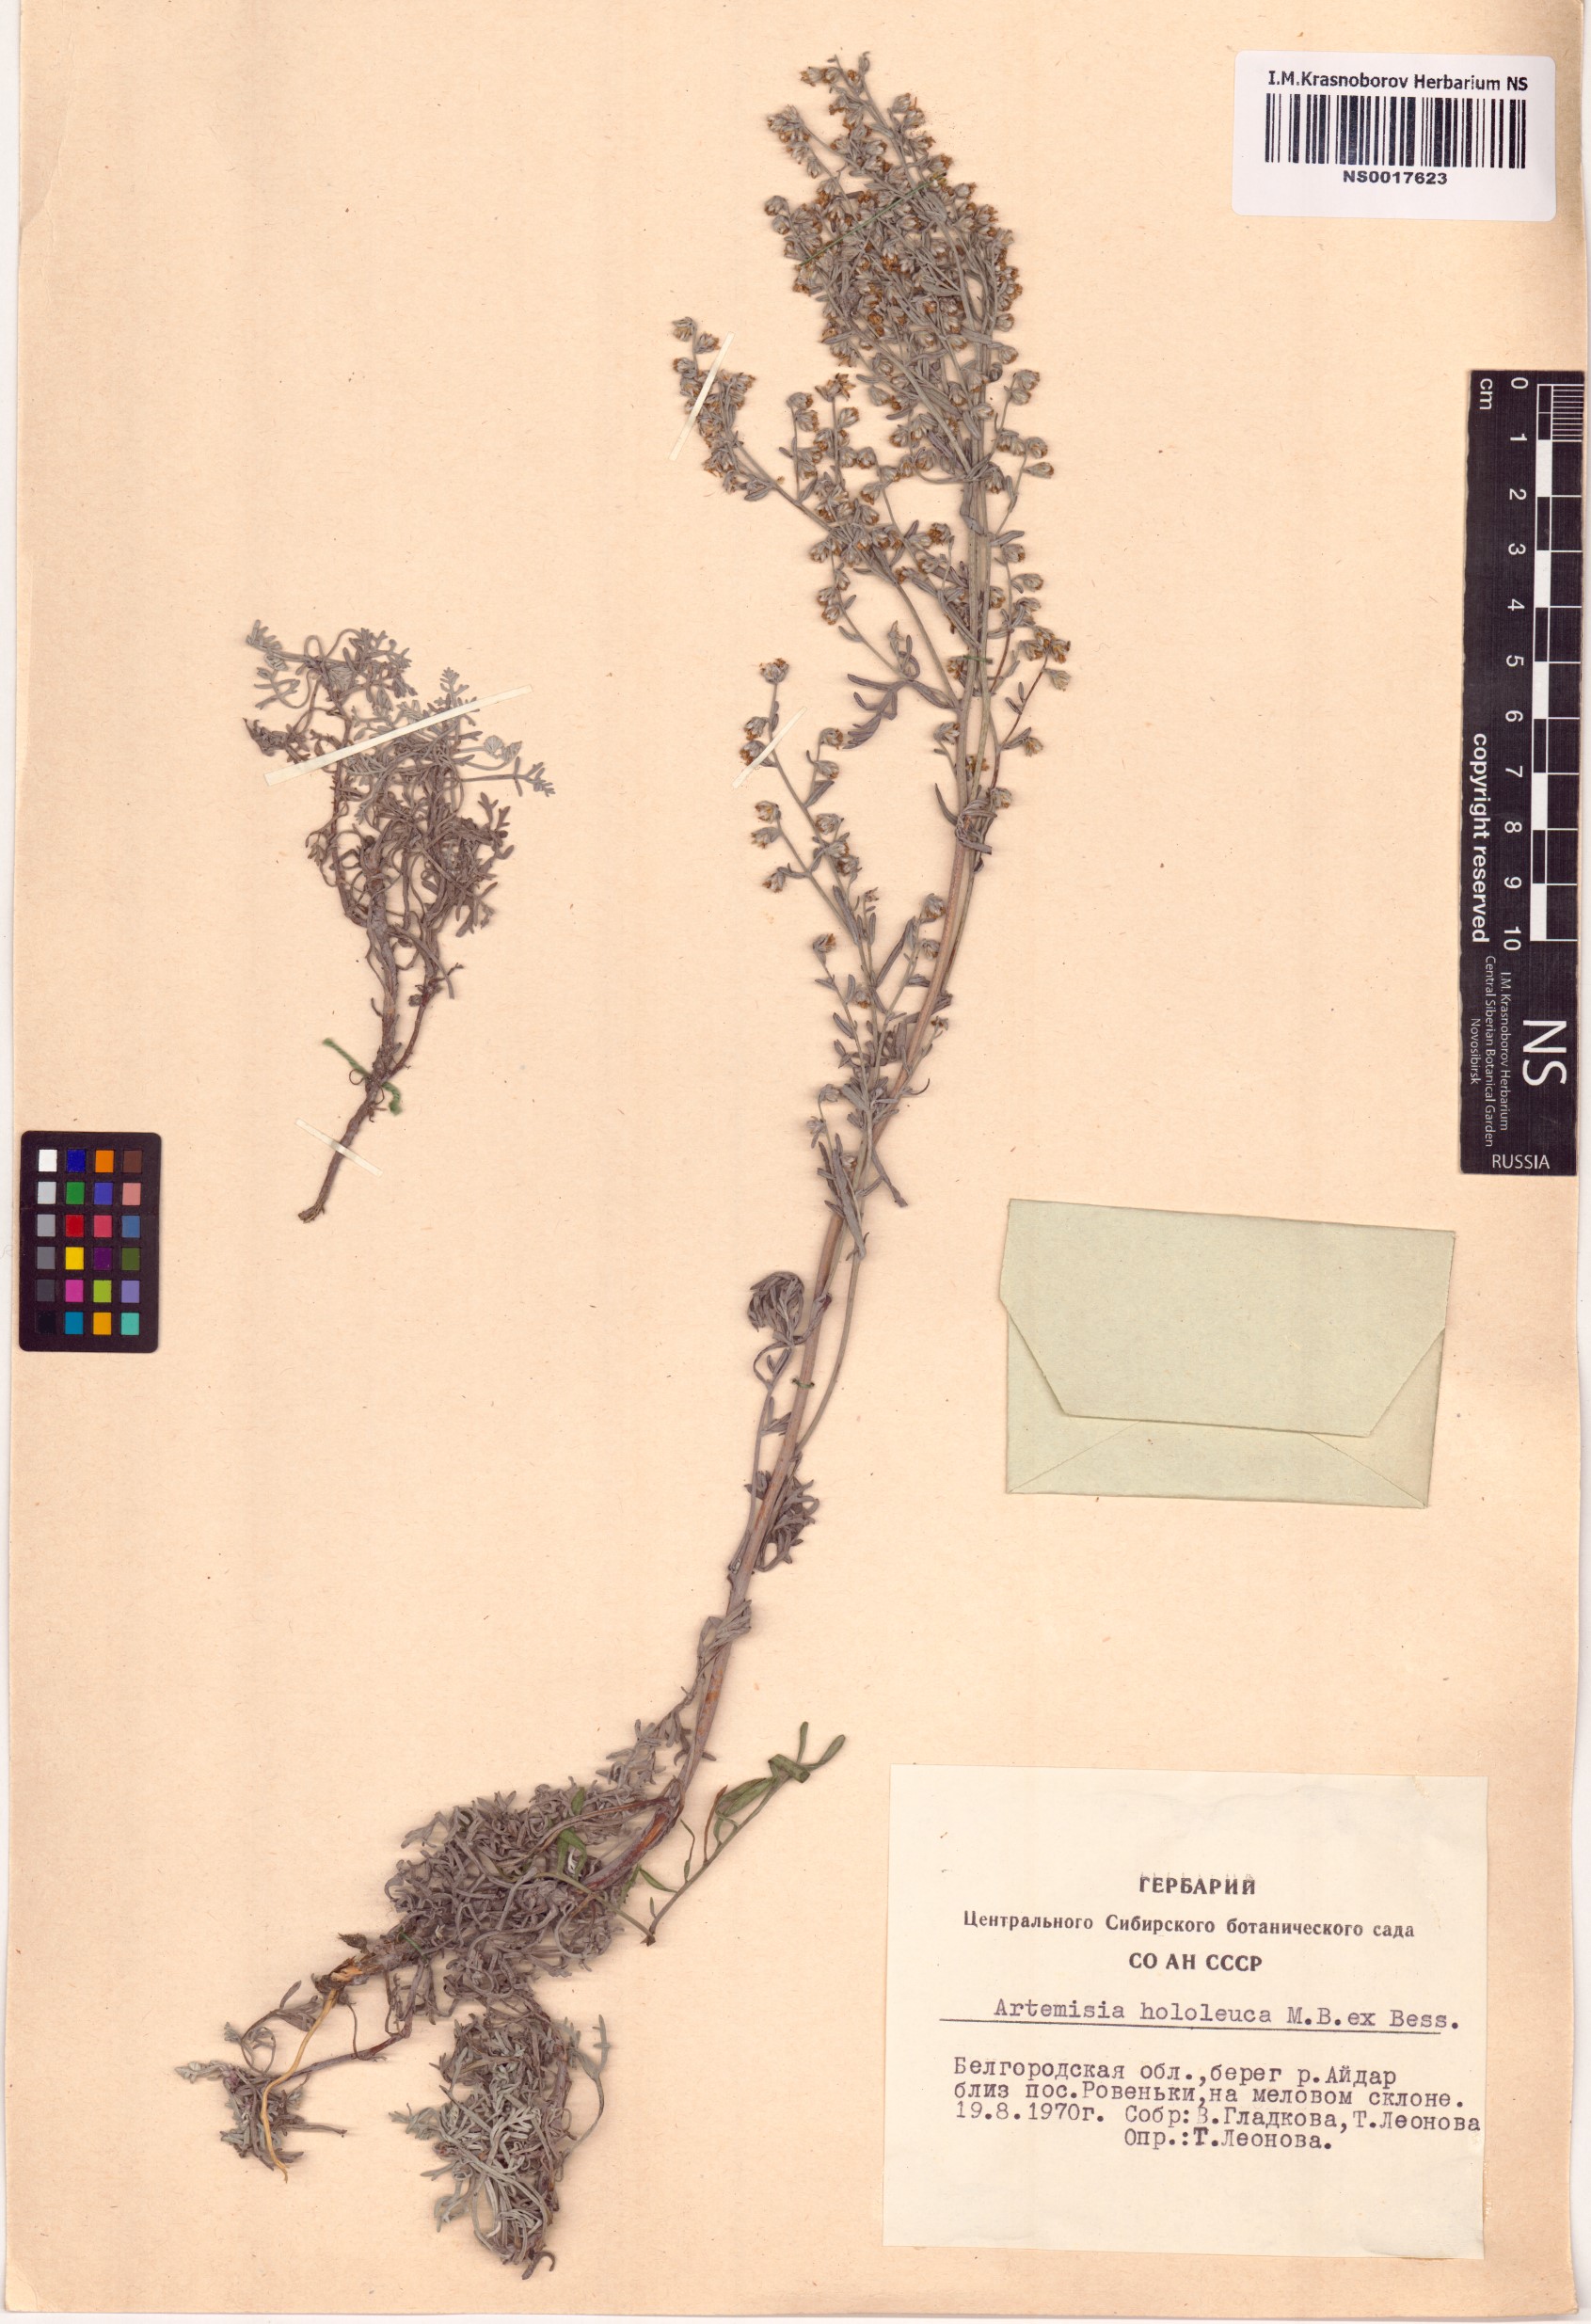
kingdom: Plantae
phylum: Tracheophyta
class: Magnoliopsida
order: Asterales
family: Asteraceae
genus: Artemisia
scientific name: Artemisia hololeuca
